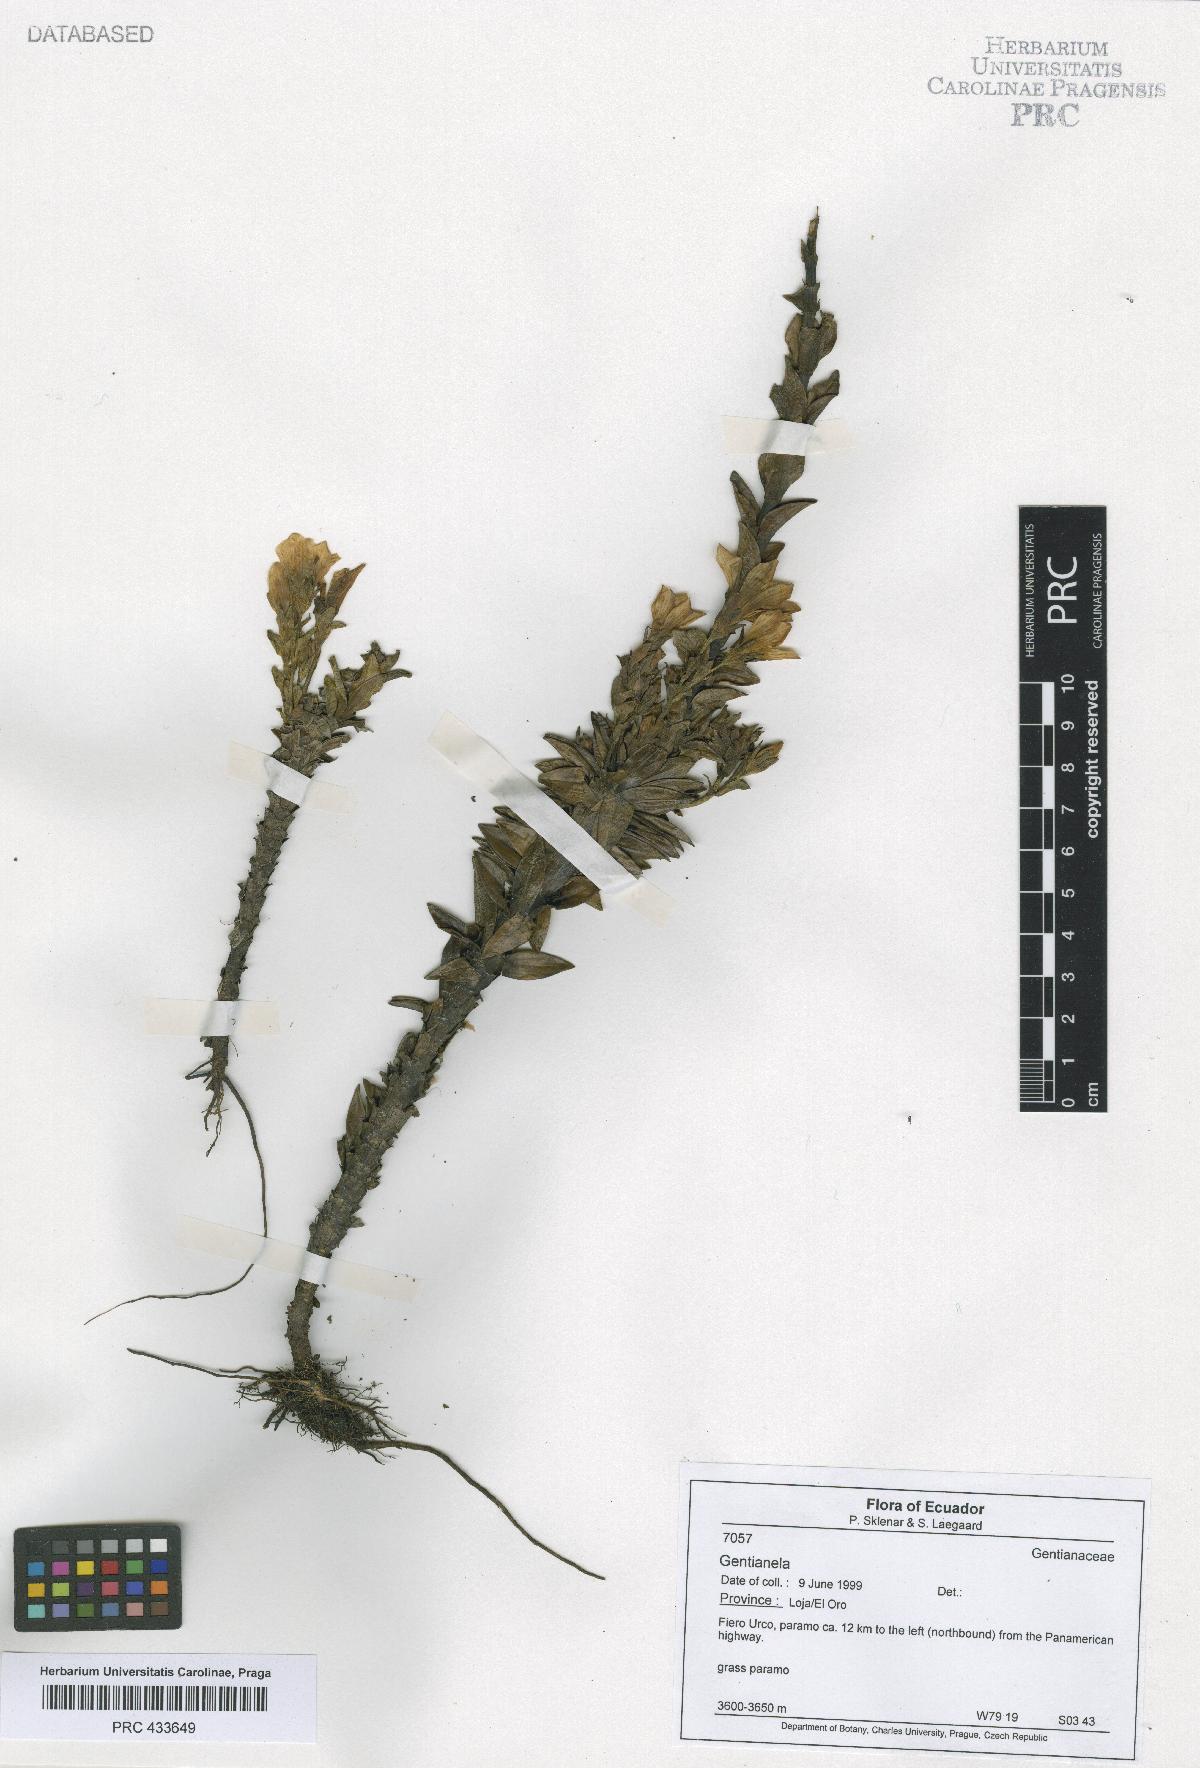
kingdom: Plantae
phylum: Tracheophyta
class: Magnoliopsida
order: Gentianales
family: Gentianaceae
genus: Gentianella
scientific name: Gentianella
